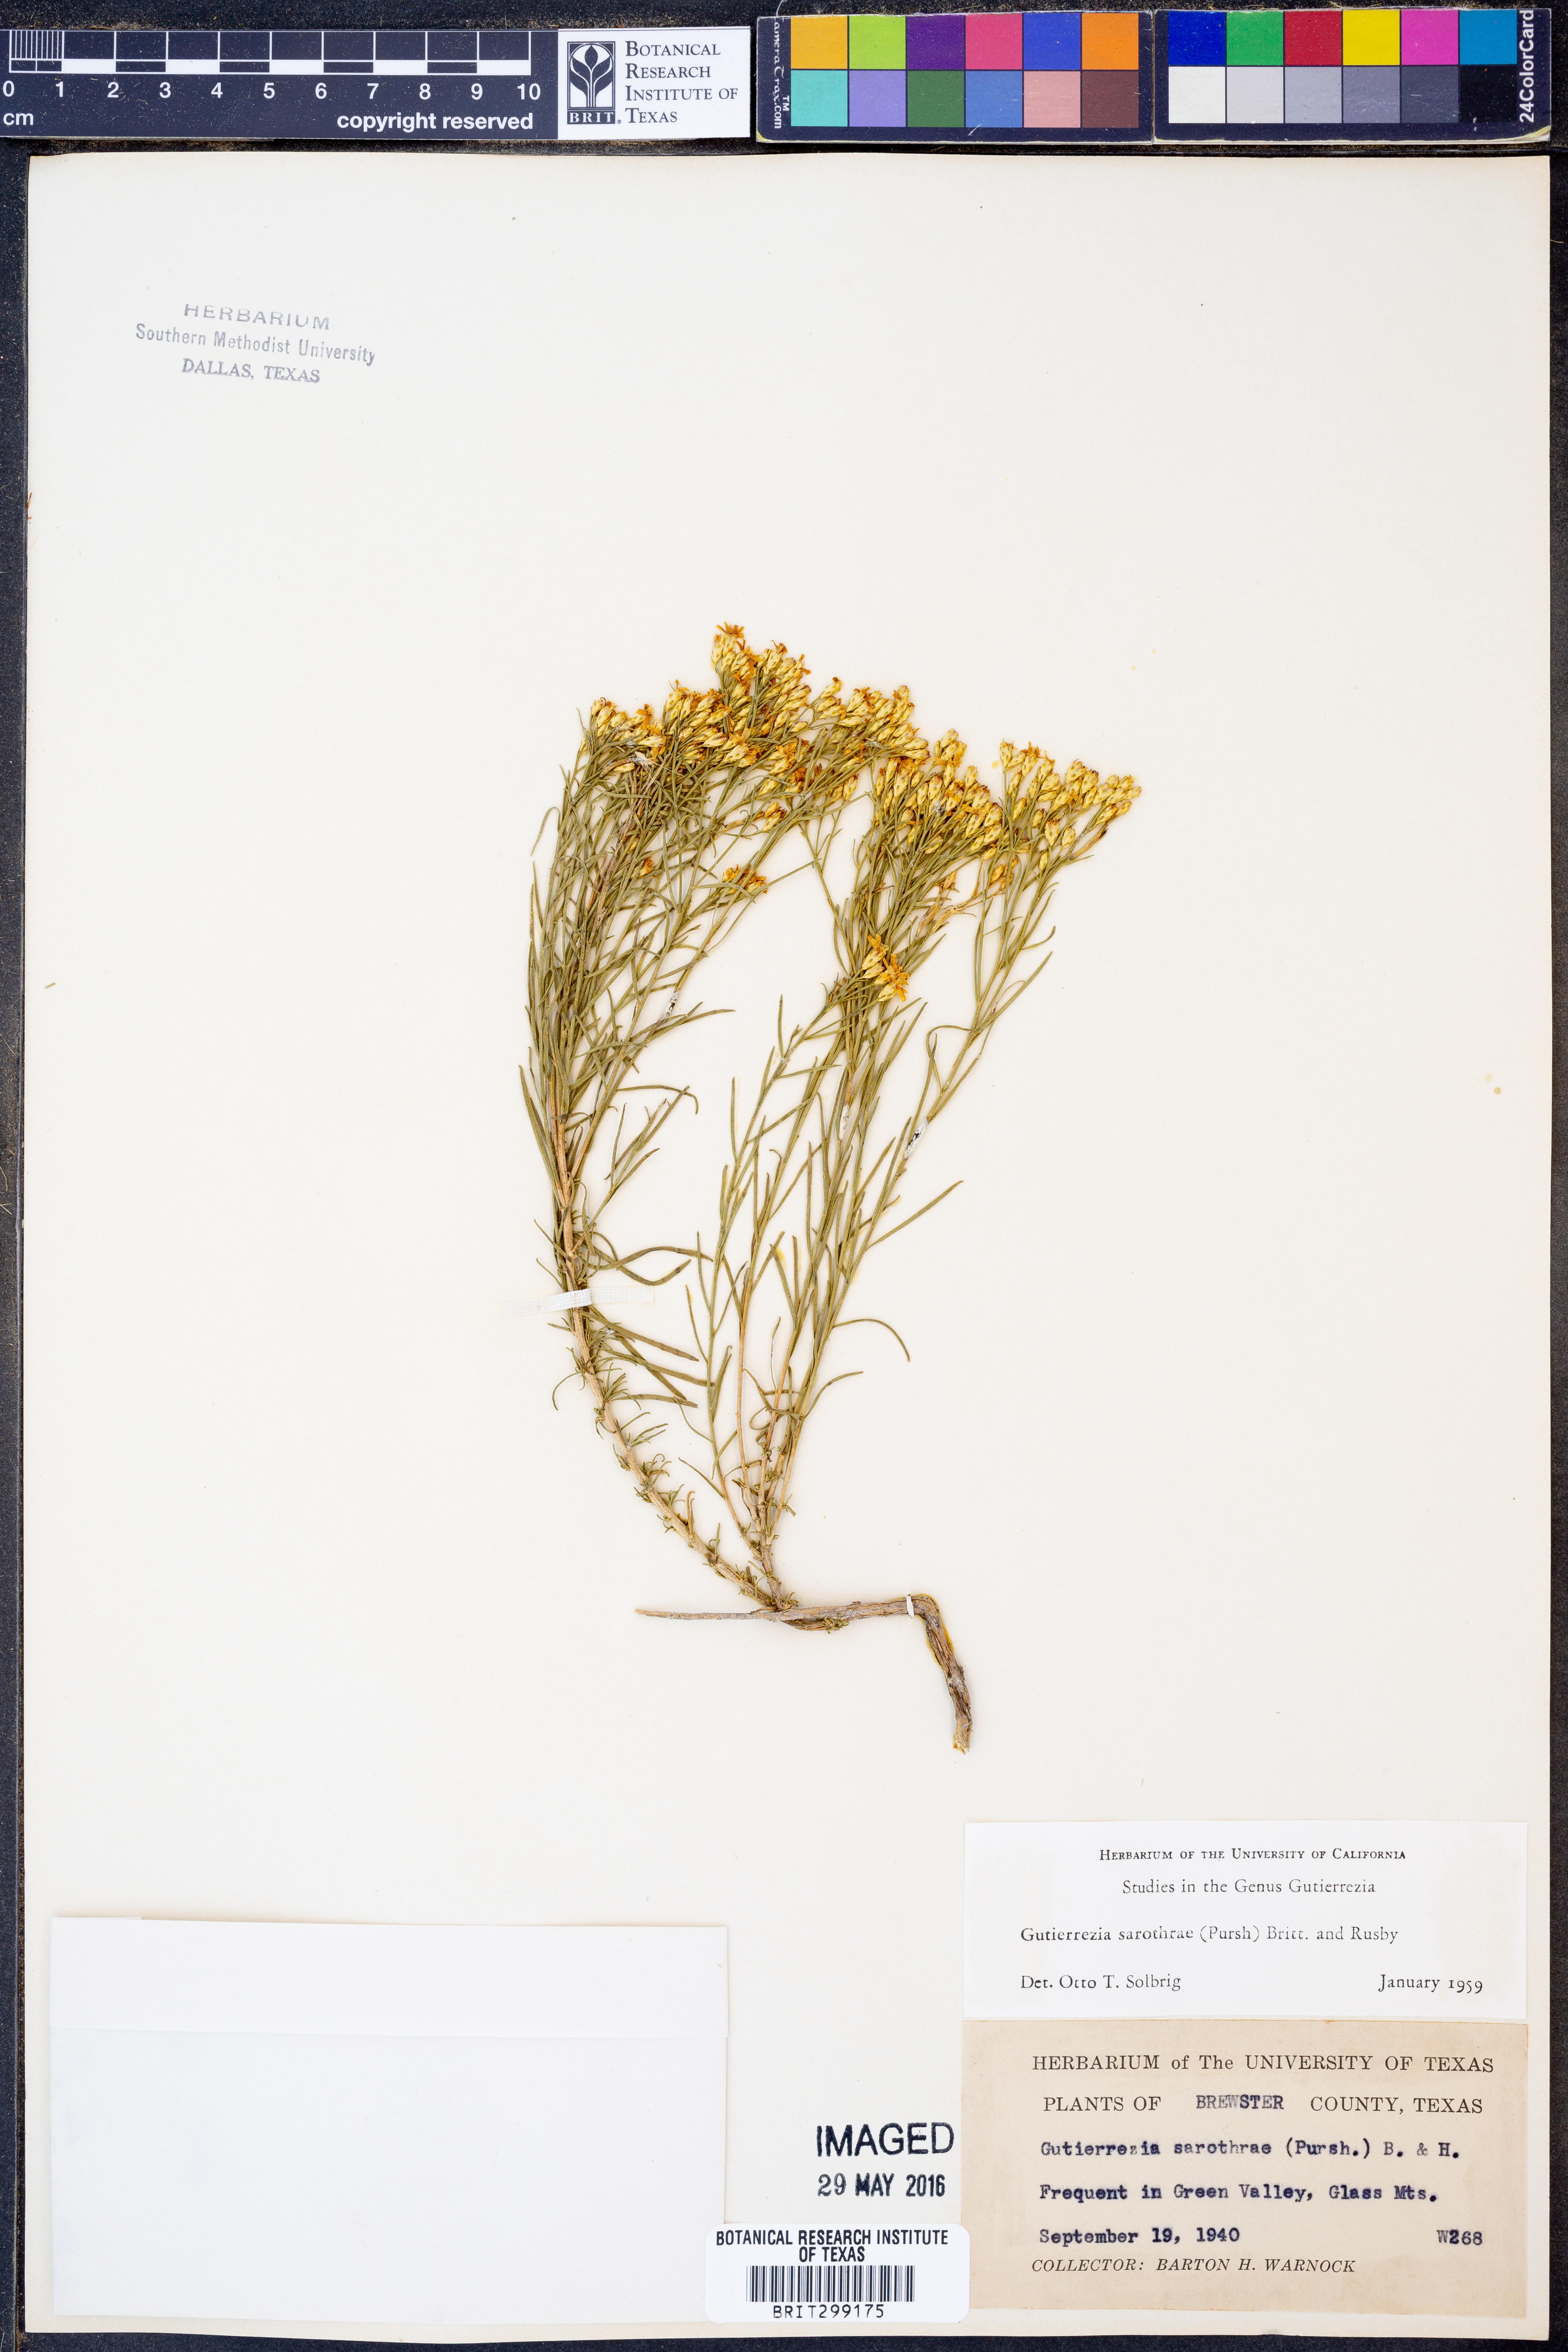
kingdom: Plantae
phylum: Tracheophyta
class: Magnoliopsida
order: Asterales
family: Asteraceae
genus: Gutierrezia
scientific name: Gutierrezia sarothrae
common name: Broom snakeweed
